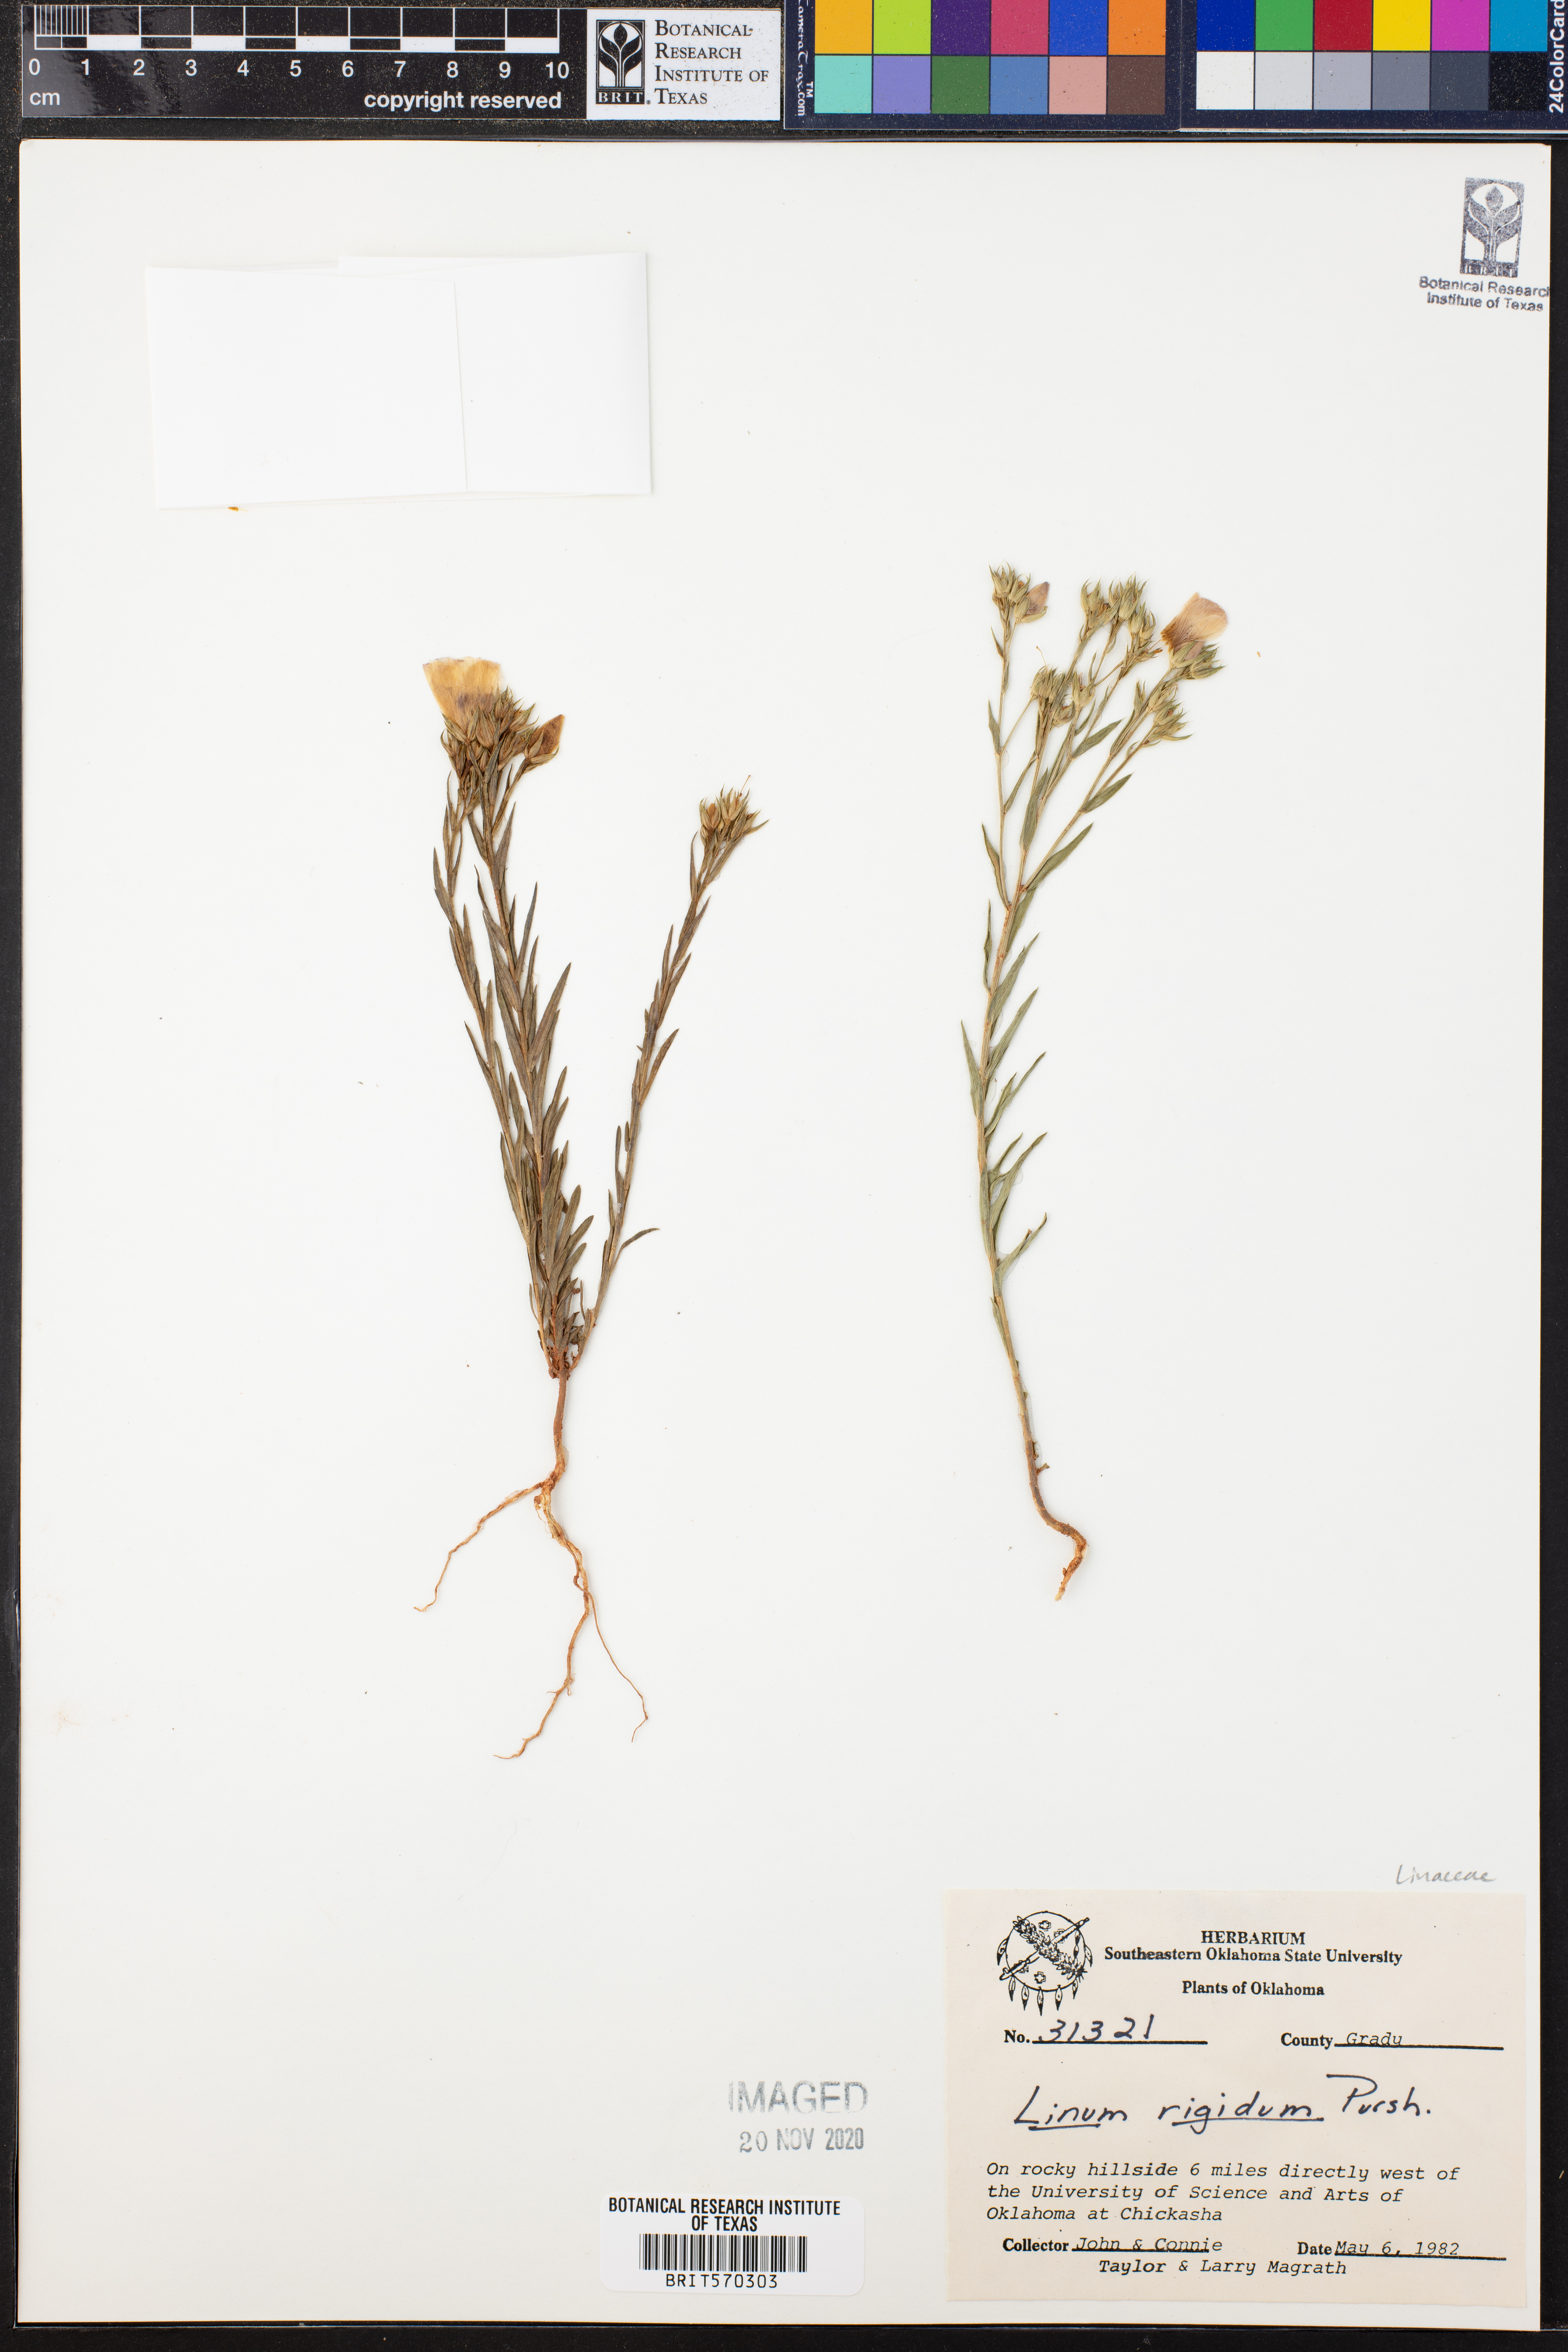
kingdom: Plantae
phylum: Tracheophyta
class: Magnoliopsida
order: Malpighiales
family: Linaceae
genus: Linum
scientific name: Linum rigidum
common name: Stiff-stem flax
